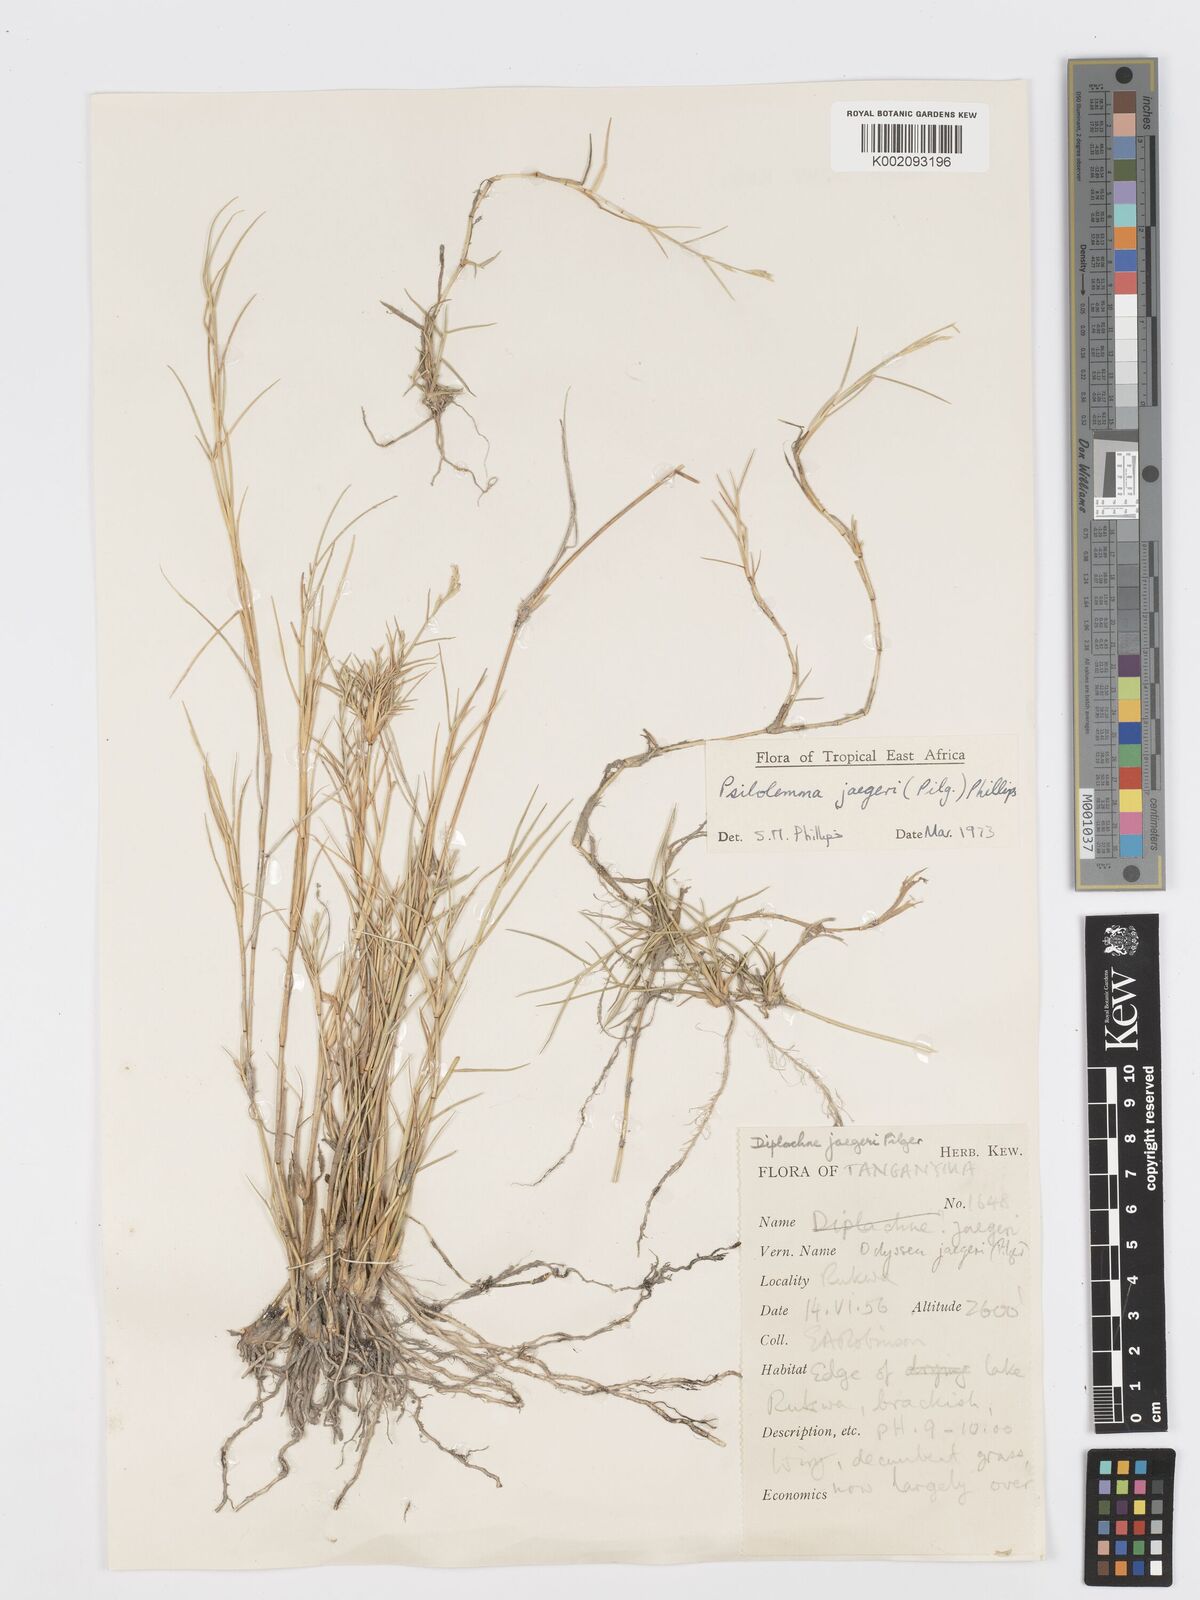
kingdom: Plantae
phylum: Tracheophyta
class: Liliopsida
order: Poales
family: Poaceae
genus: Psilolemma
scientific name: Psilolemma jaegeri
